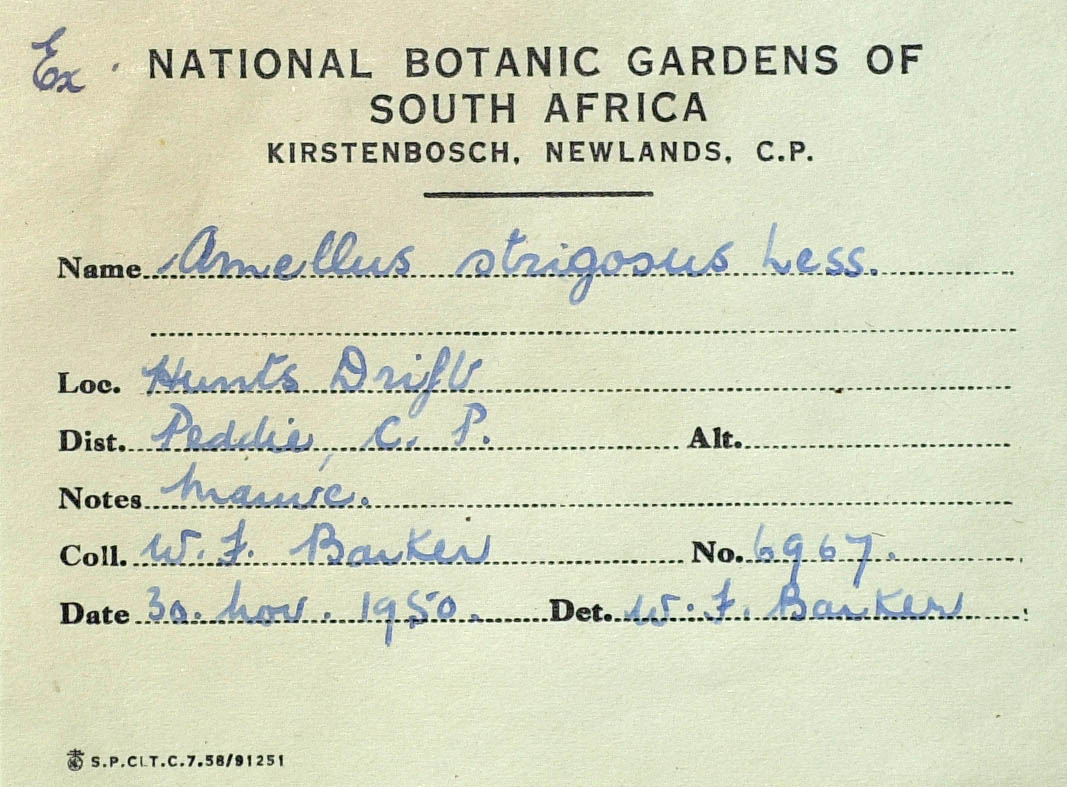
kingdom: Plantae
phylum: Tracheophyta
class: Magnoliopsida
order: Asterales
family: Asteraceae
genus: Amellus
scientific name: Amellus strigosus
